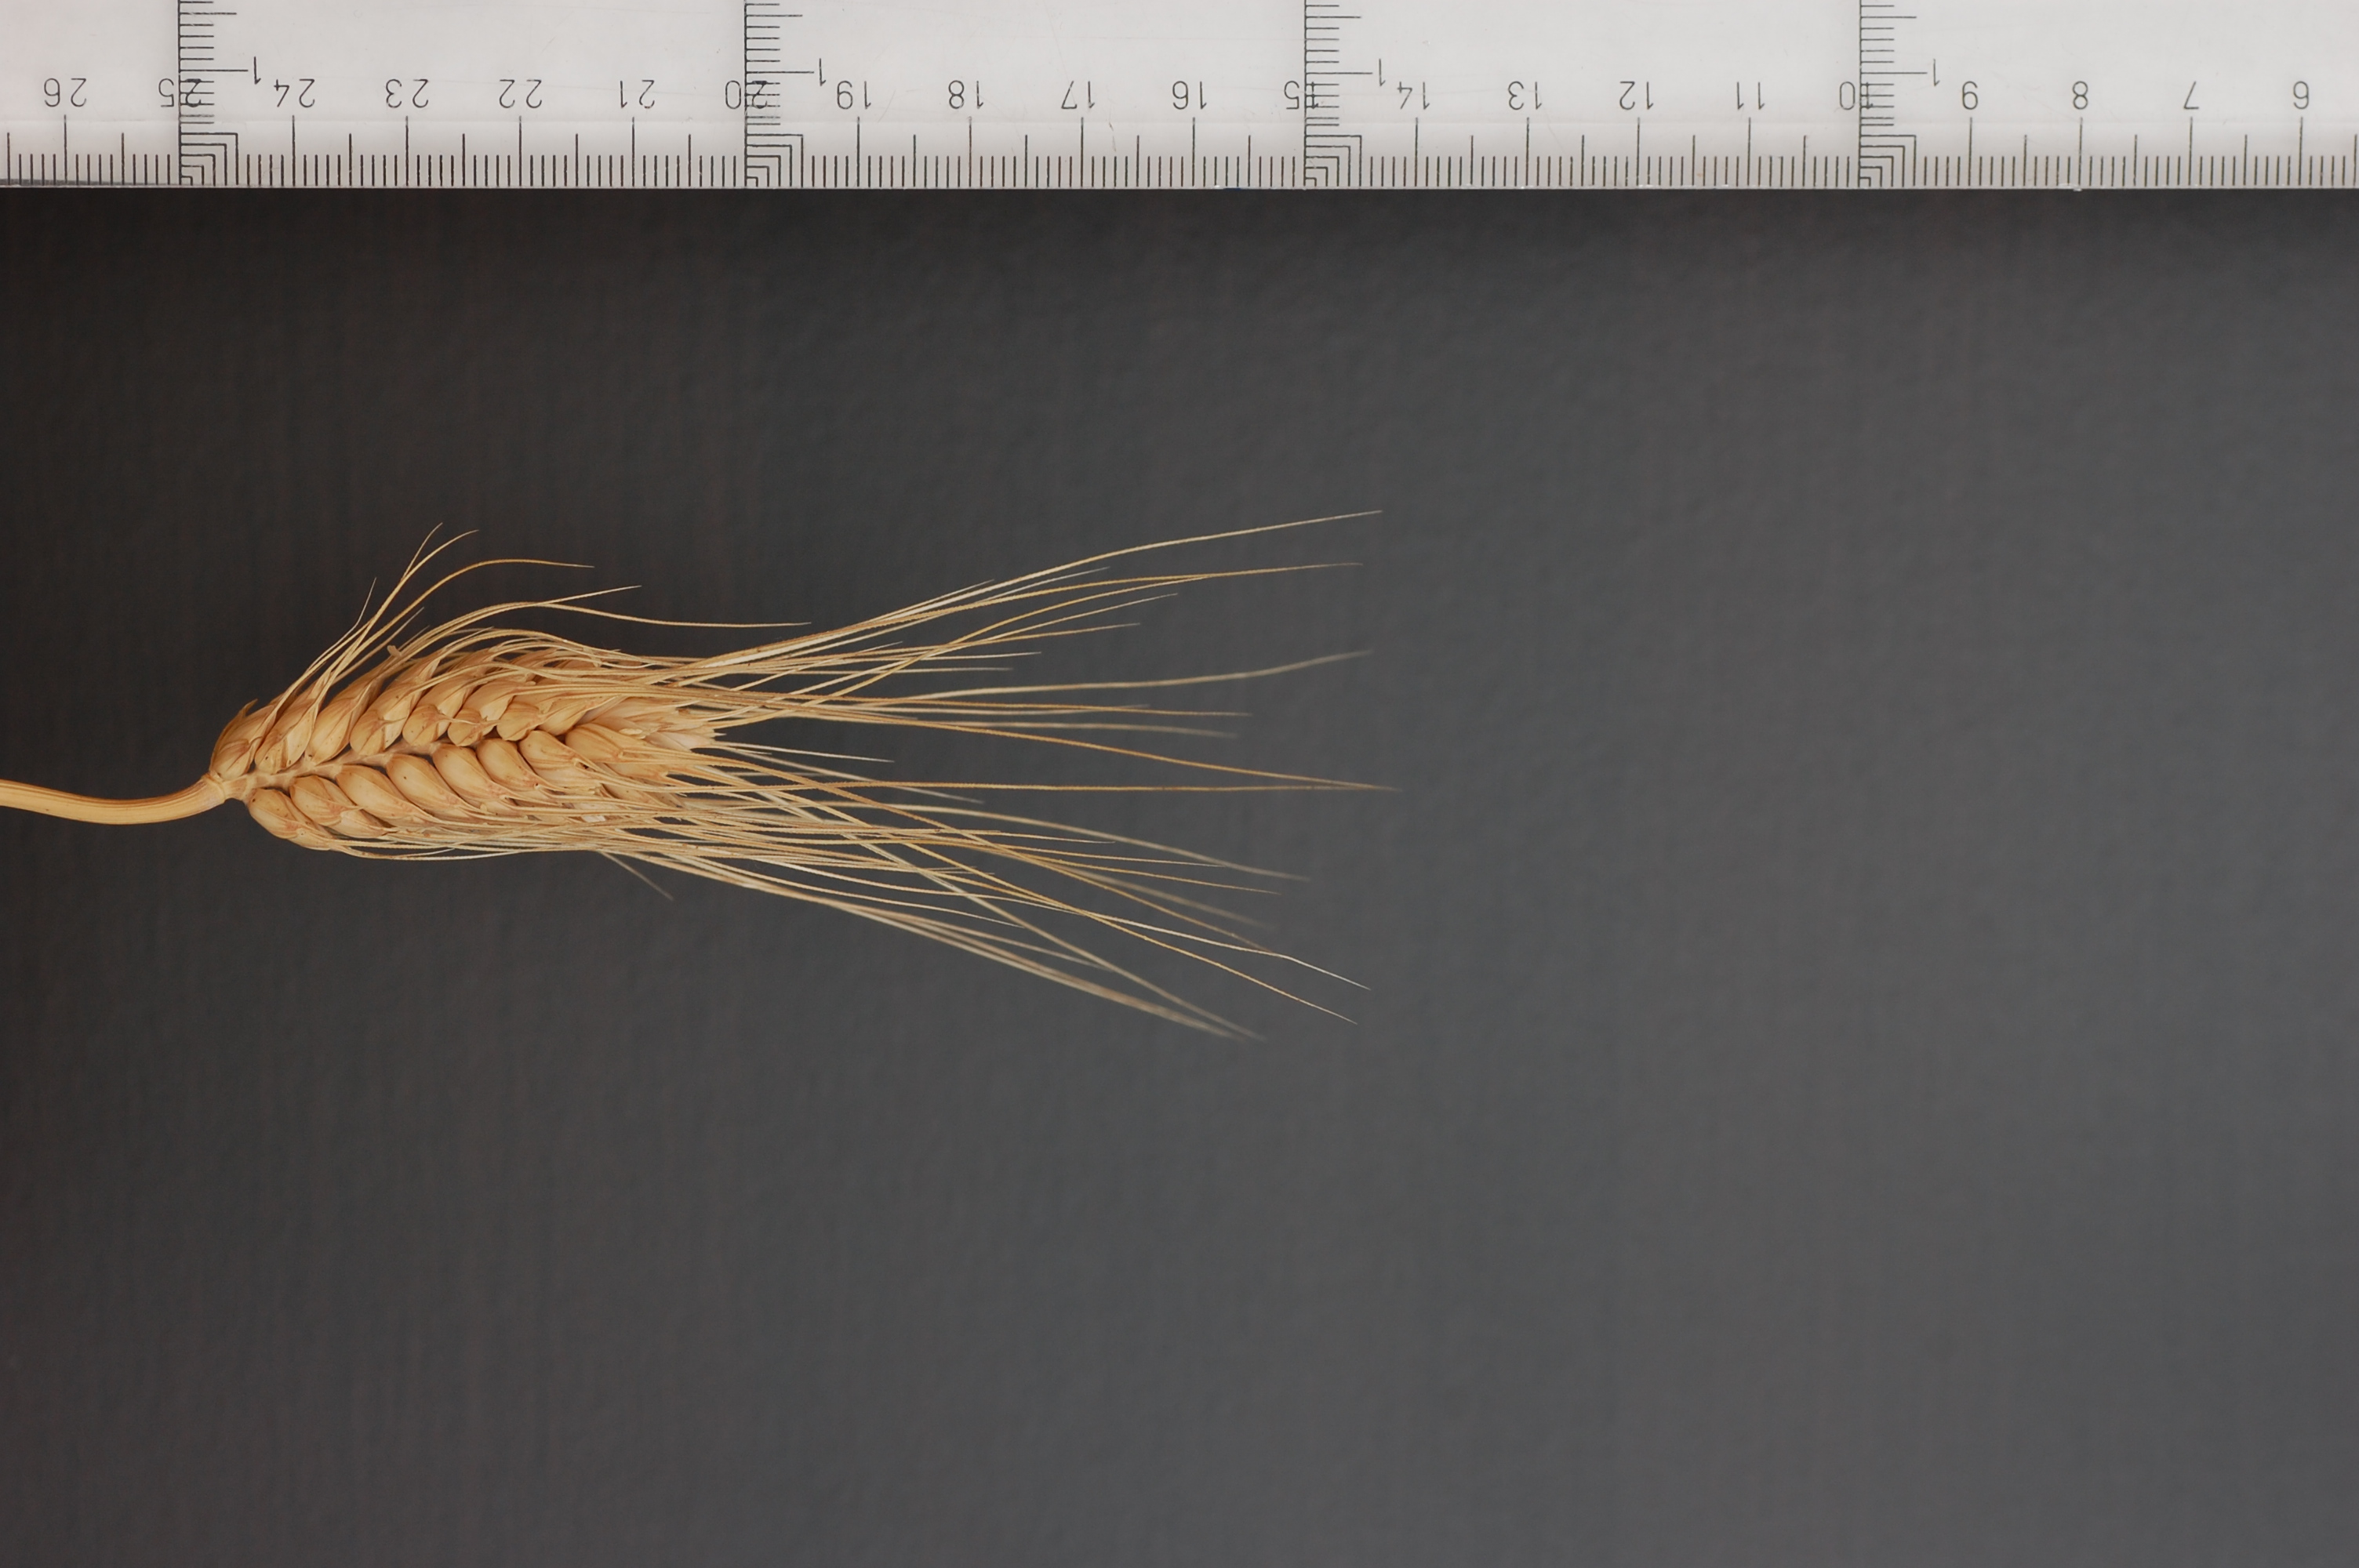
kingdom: Plantae
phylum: Tracheophyta
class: Liliopsida
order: Poales
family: Poaceae
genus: Triticum
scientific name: Triticum aestivum
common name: Common wheat
